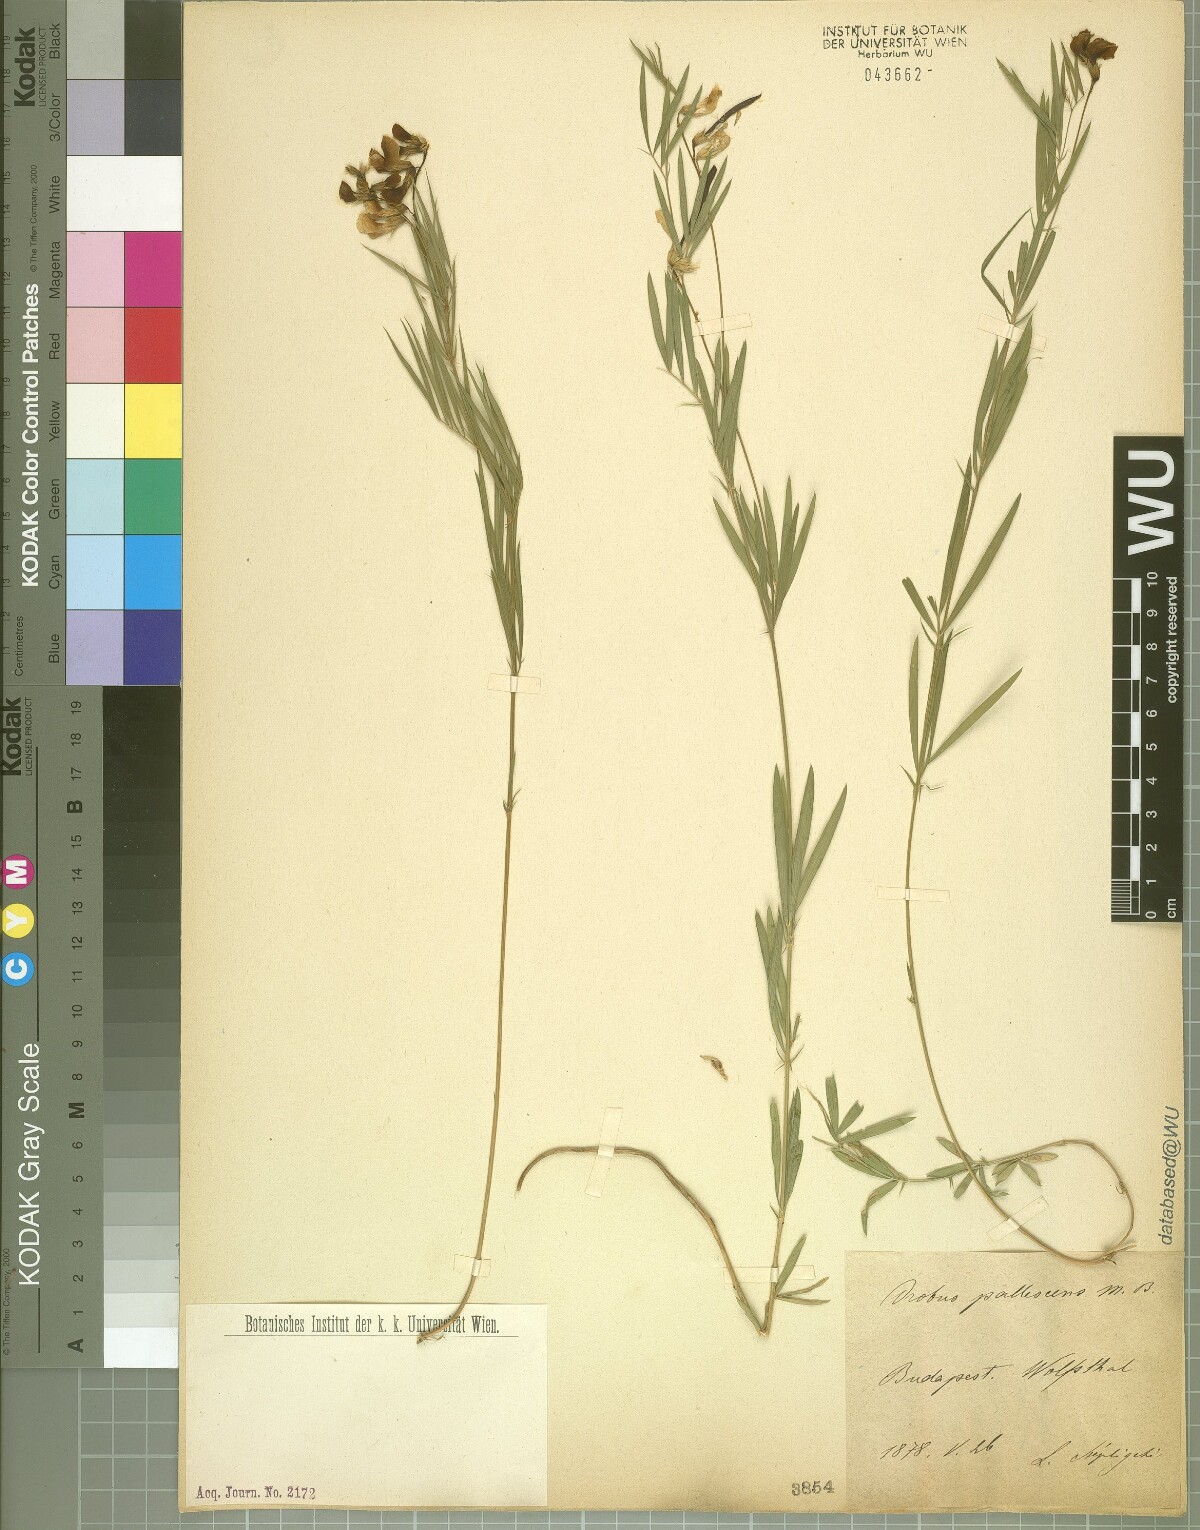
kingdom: Plantae
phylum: Tracheophyta
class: Magnoliopsida
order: Fabales
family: Fabaceae
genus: Lathyrus
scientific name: Lathyrus pallescens
